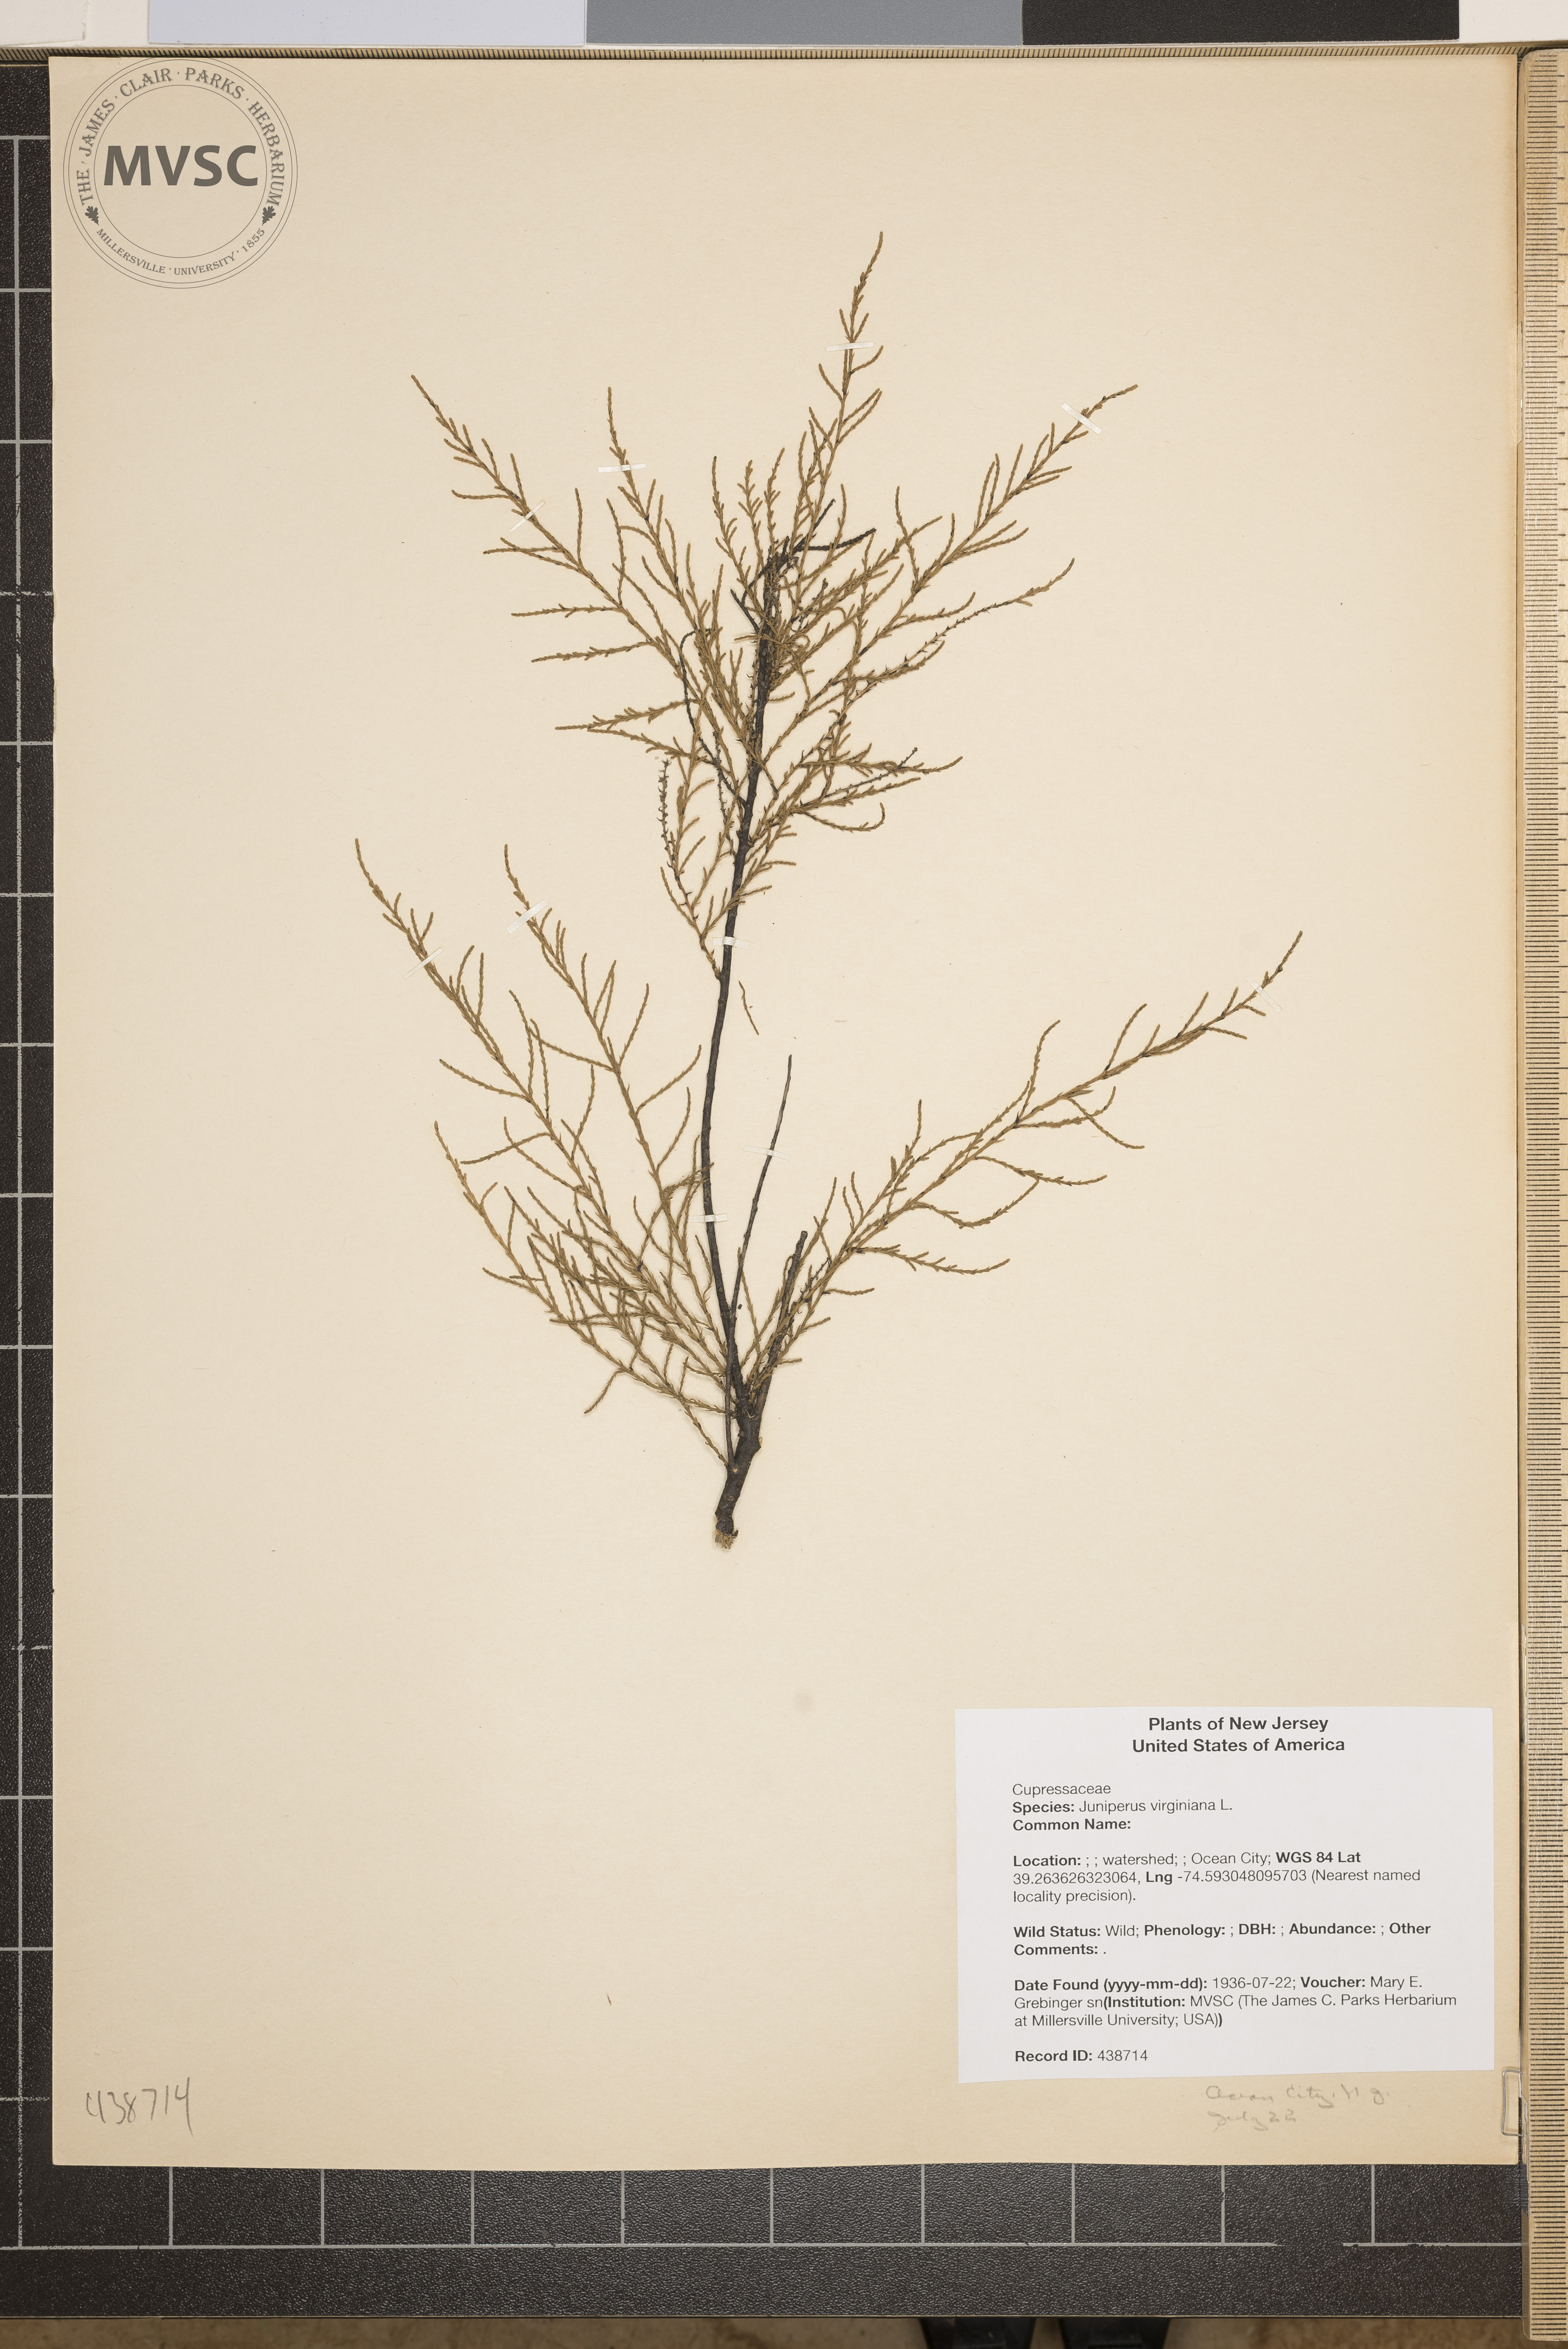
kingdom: Plantae
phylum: Tracheophyta
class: Pinopsida
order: Pinales
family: Cupressaceae
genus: Juniperus
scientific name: Juniperus virginiana
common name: Red juniper
